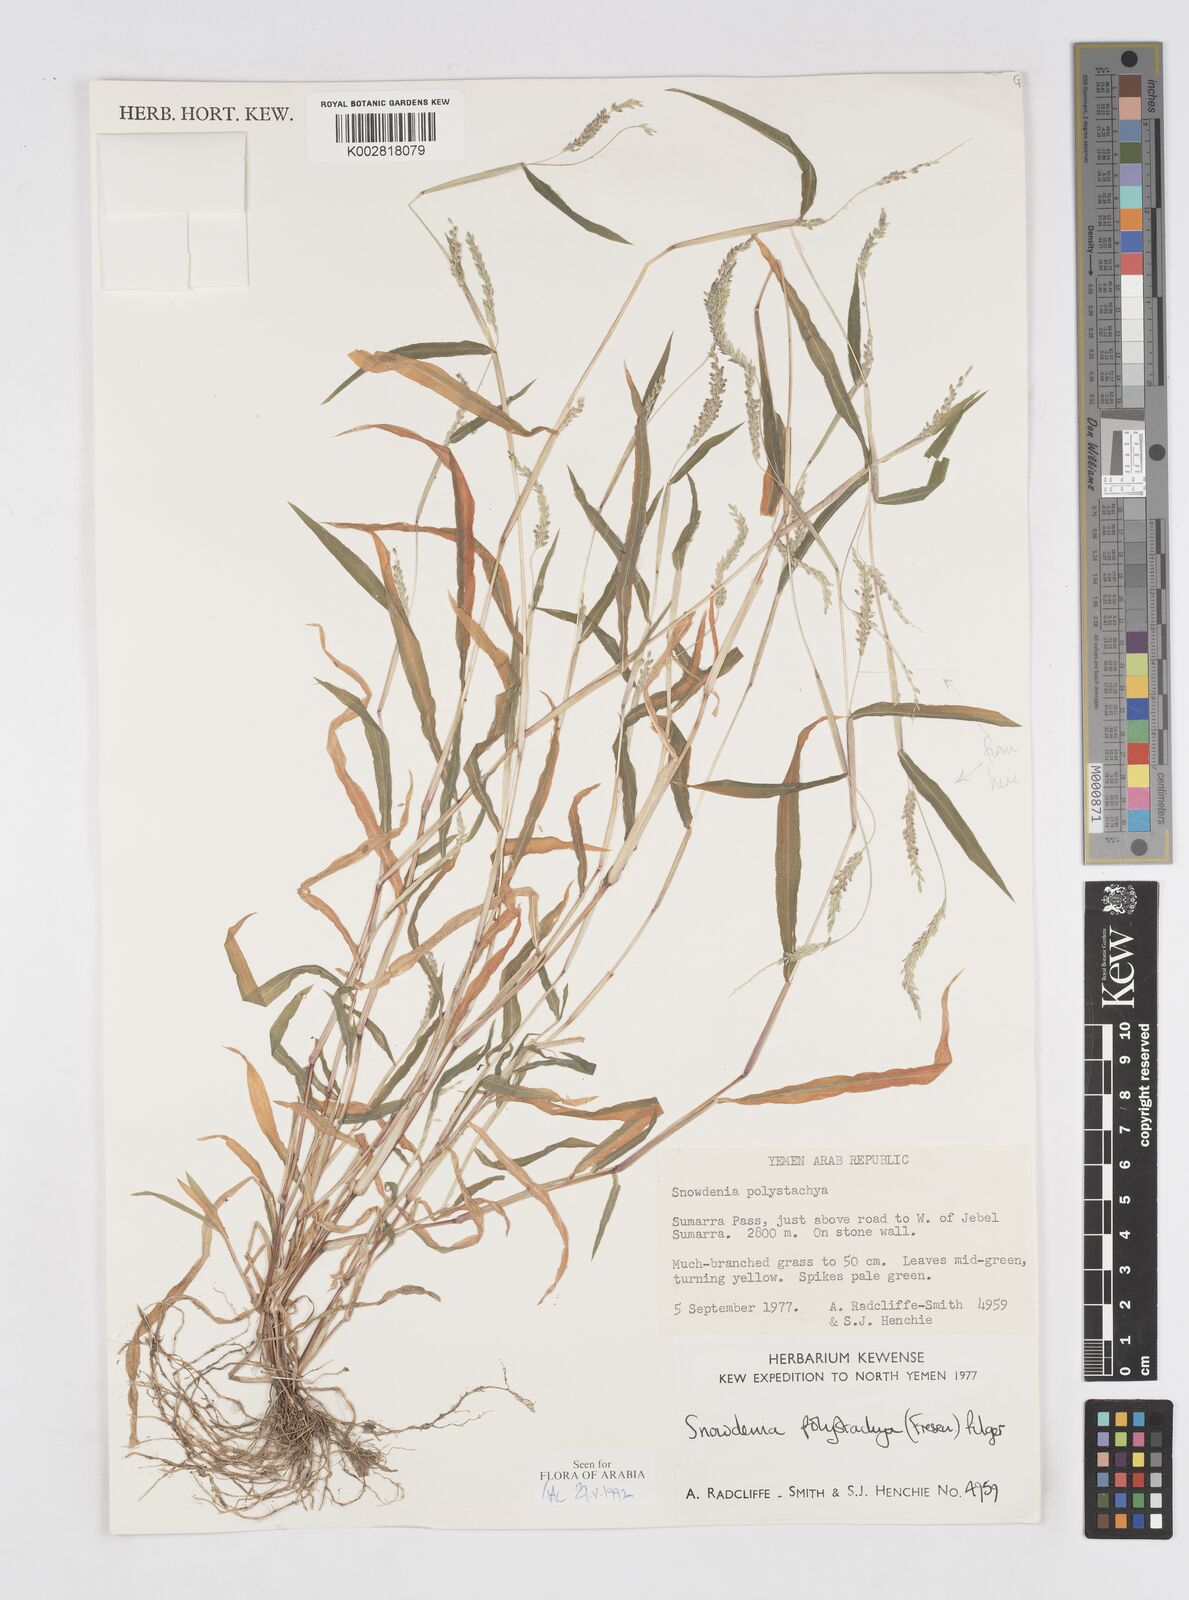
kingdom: Plantae
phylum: Tracheophyta
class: Liliopsida
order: Poales
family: Poaceae
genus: Snowdenia
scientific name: Snowdenia polystachya
